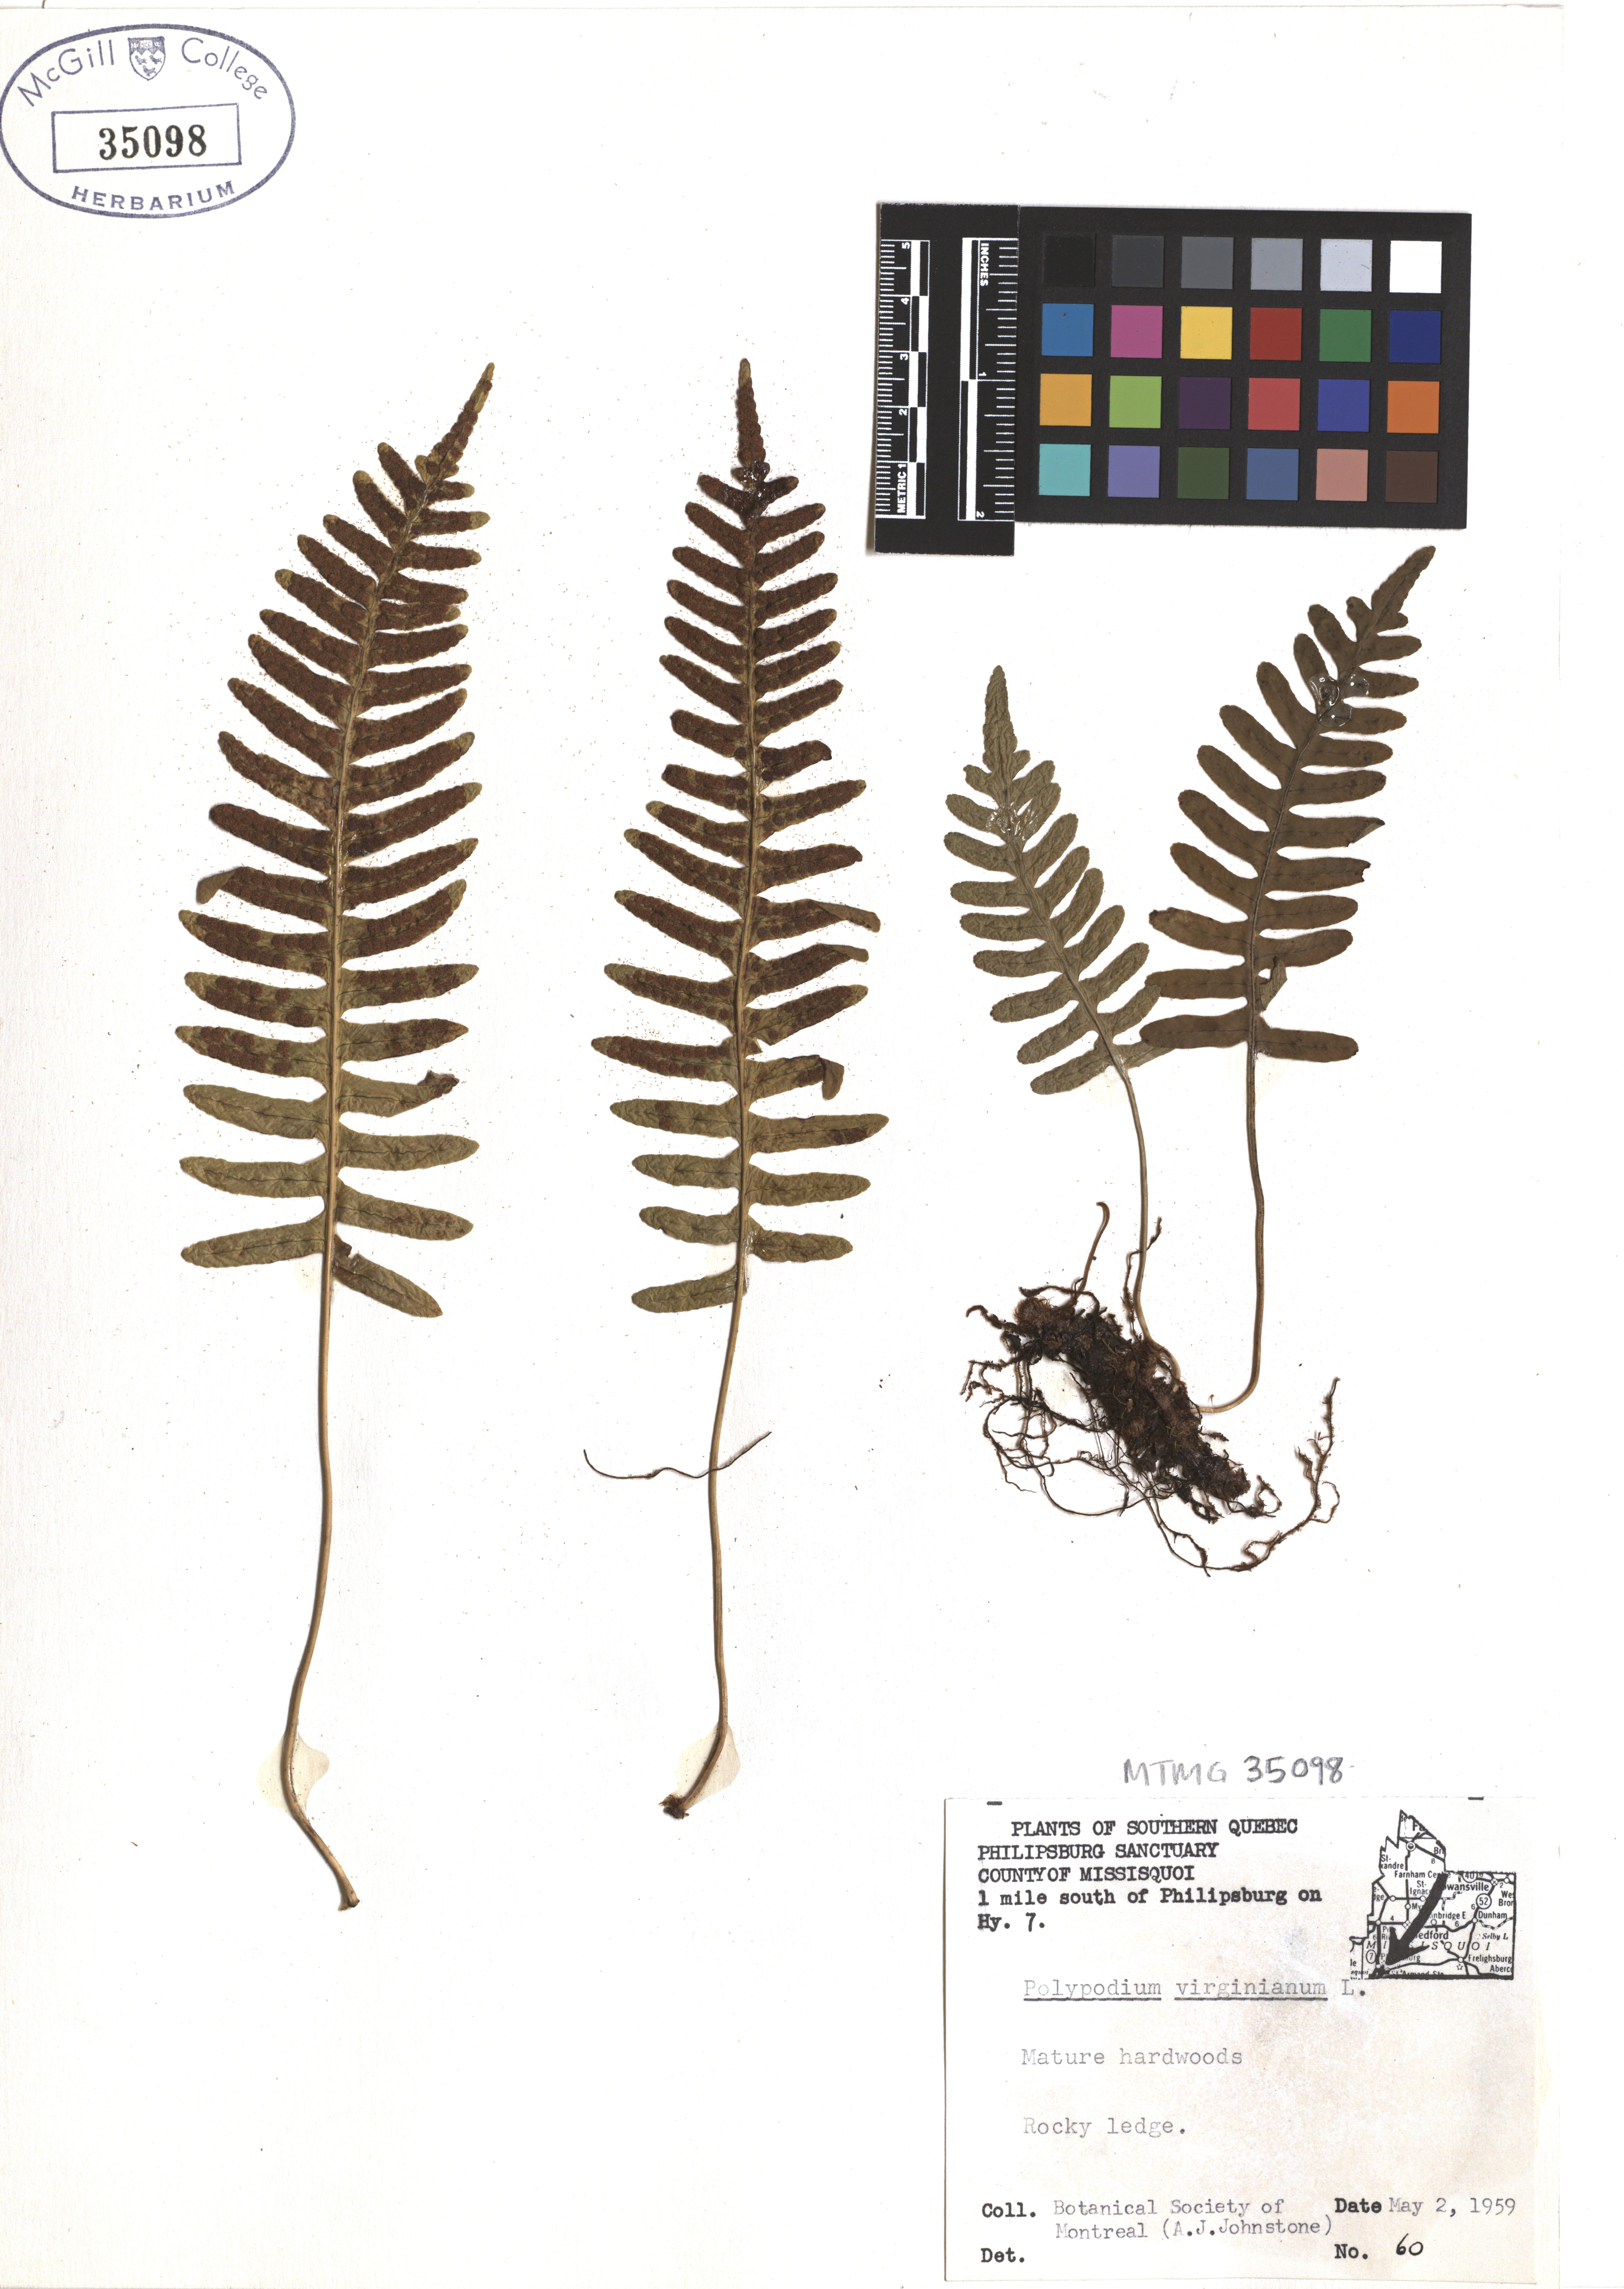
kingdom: Plantae
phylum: Tracheophyta
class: Polypodiopsida
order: Polypodiales
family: Polypodiaceae
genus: Polypodium
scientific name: Polypodium virginianum
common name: American wall fern
